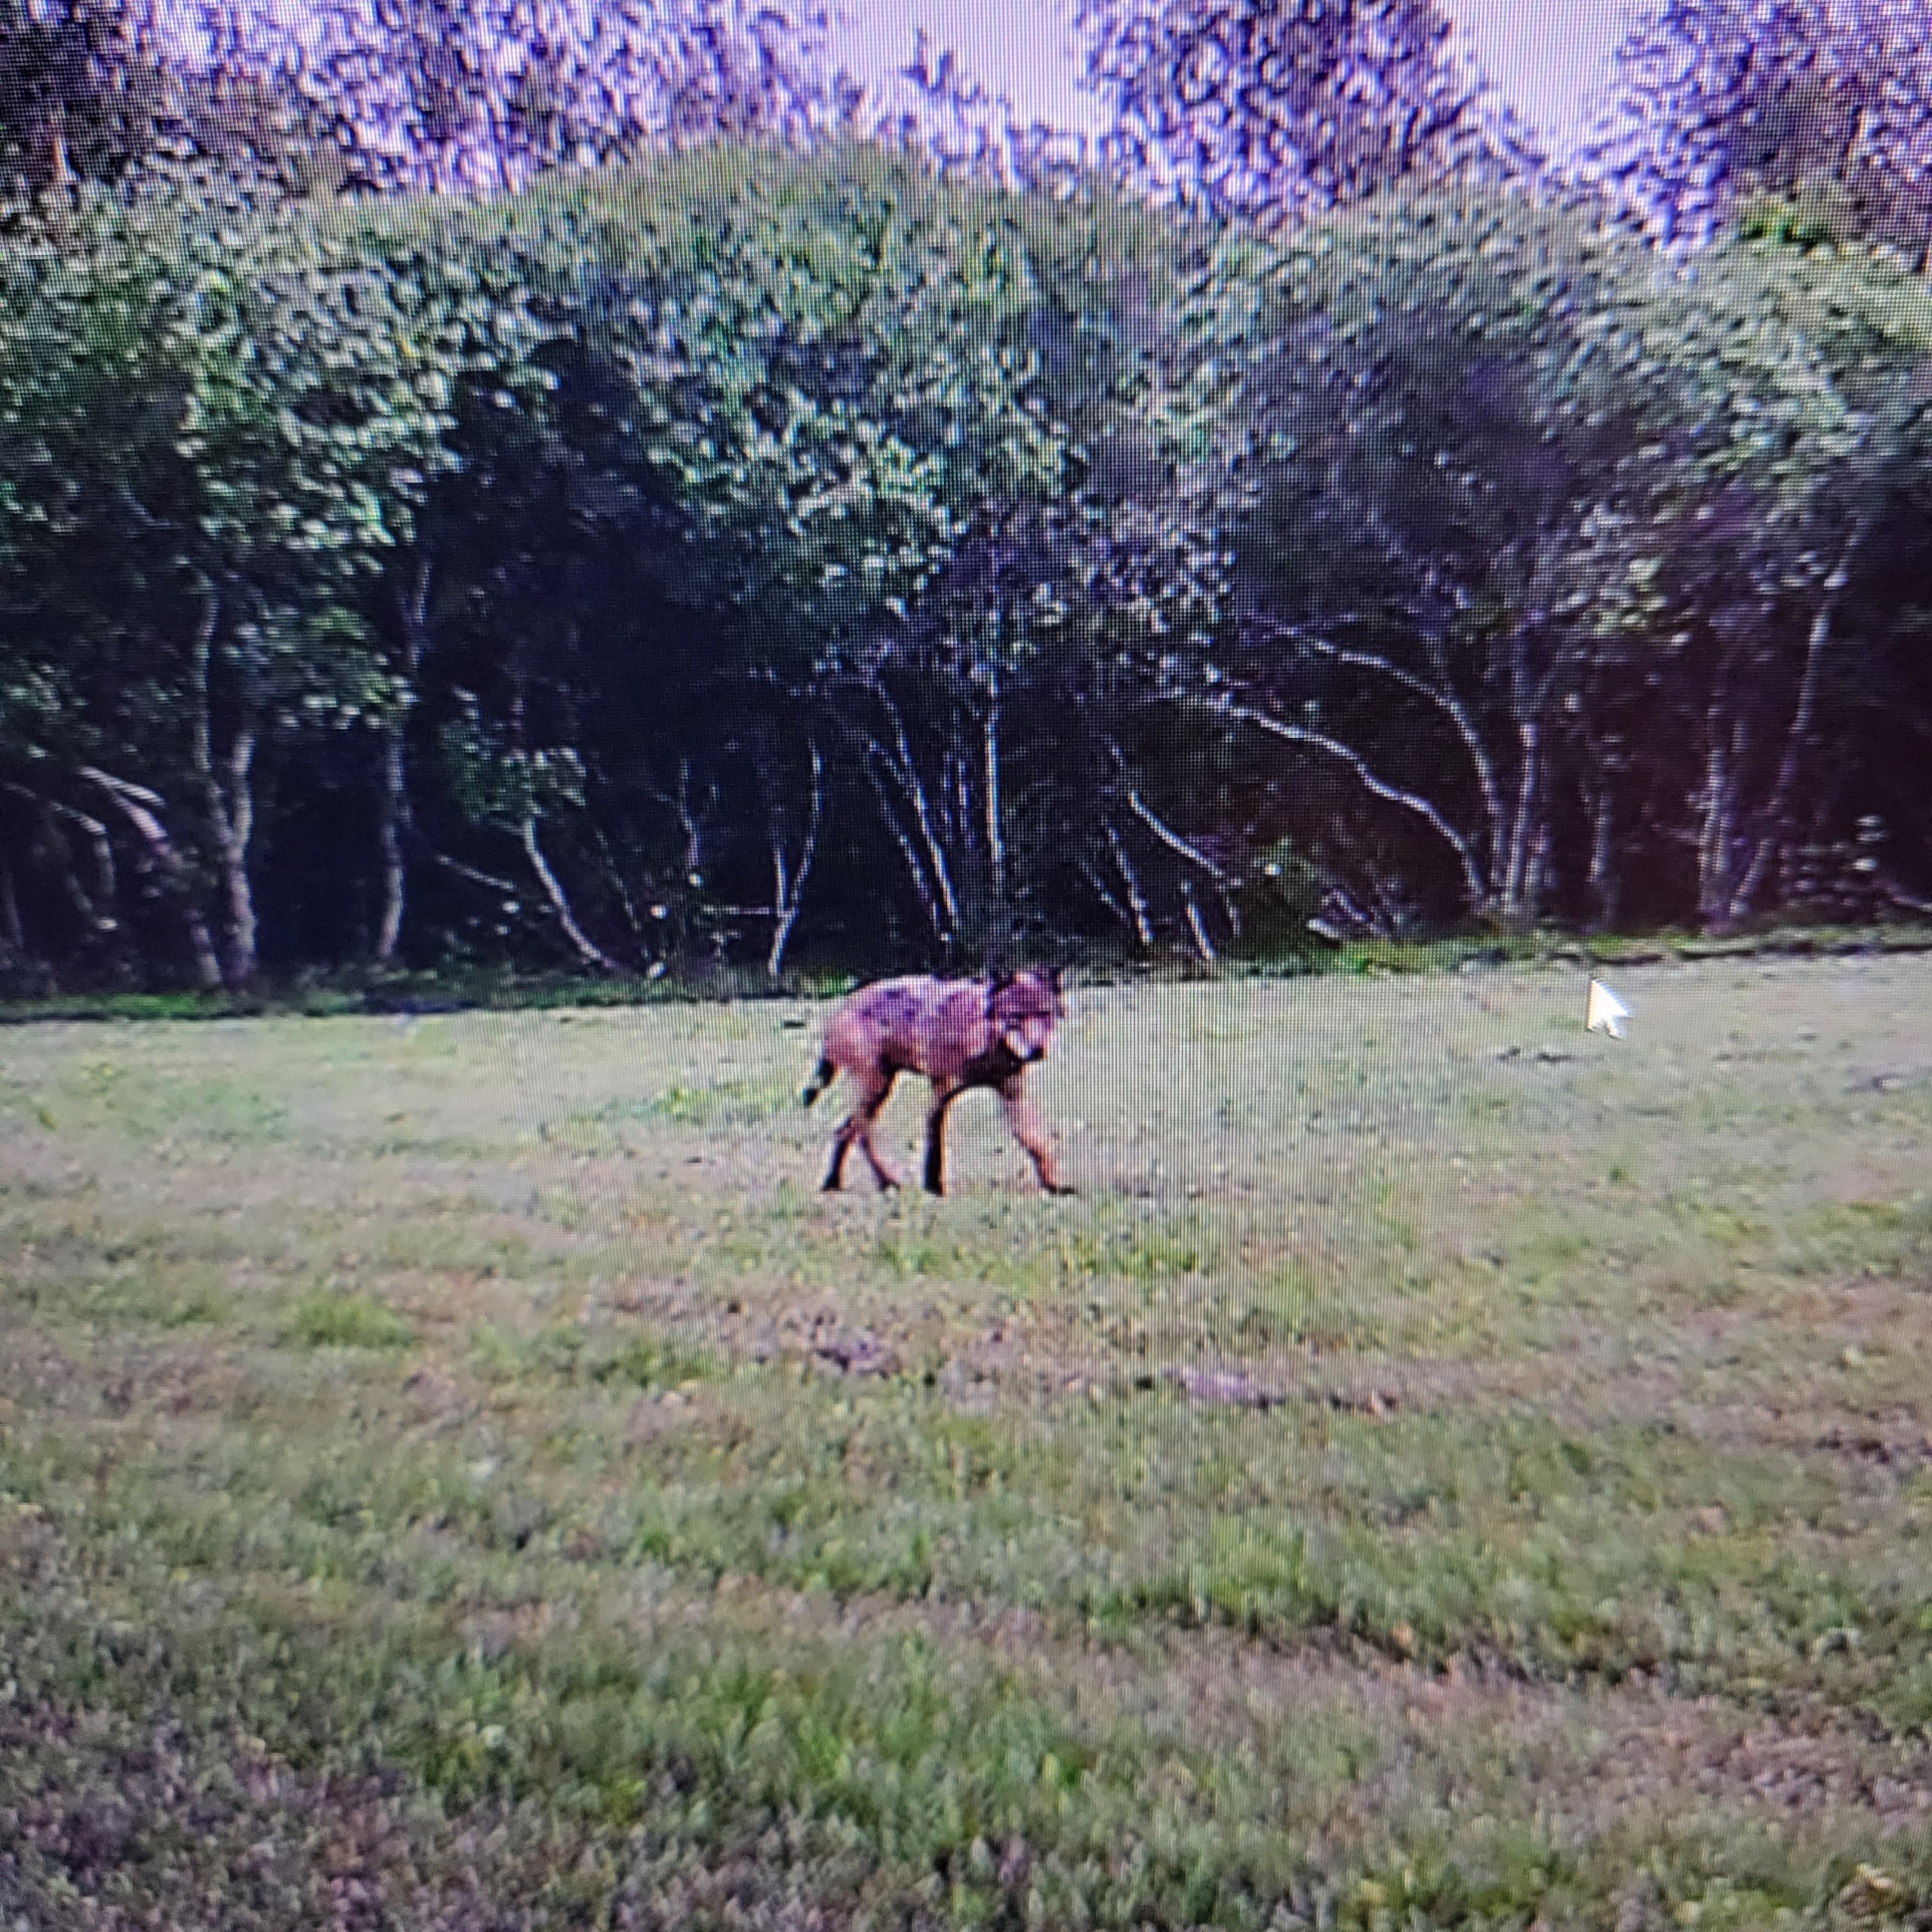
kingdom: Animalia
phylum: Chordata
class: Mammalia
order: Carnivora
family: Canidae
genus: Canis
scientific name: Canis lupus
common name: Ulv
